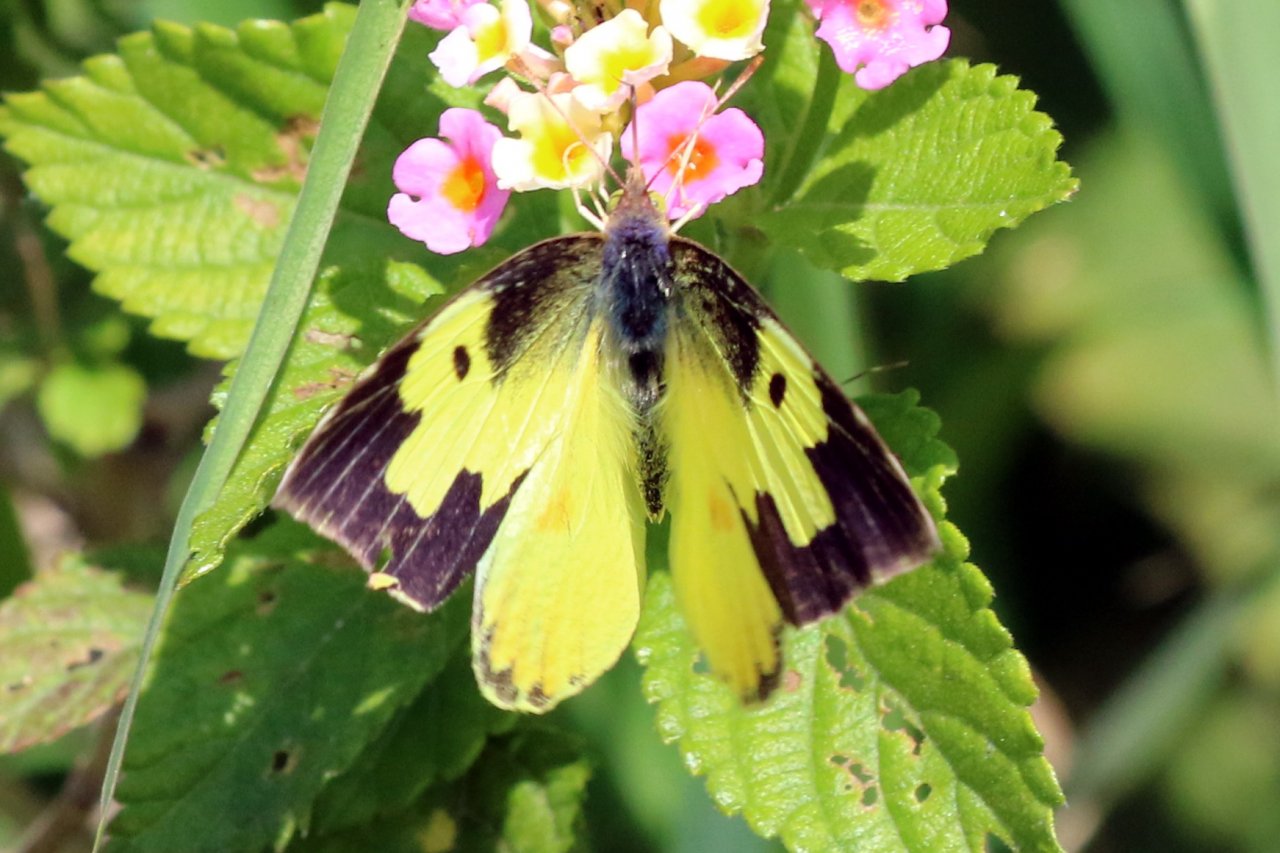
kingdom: Animalia
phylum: Arthropoda
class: Insecta
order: Lepidoptera
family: Pieridae
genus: Zerene
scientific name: Zerene cesonia
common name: Southern Dogface
